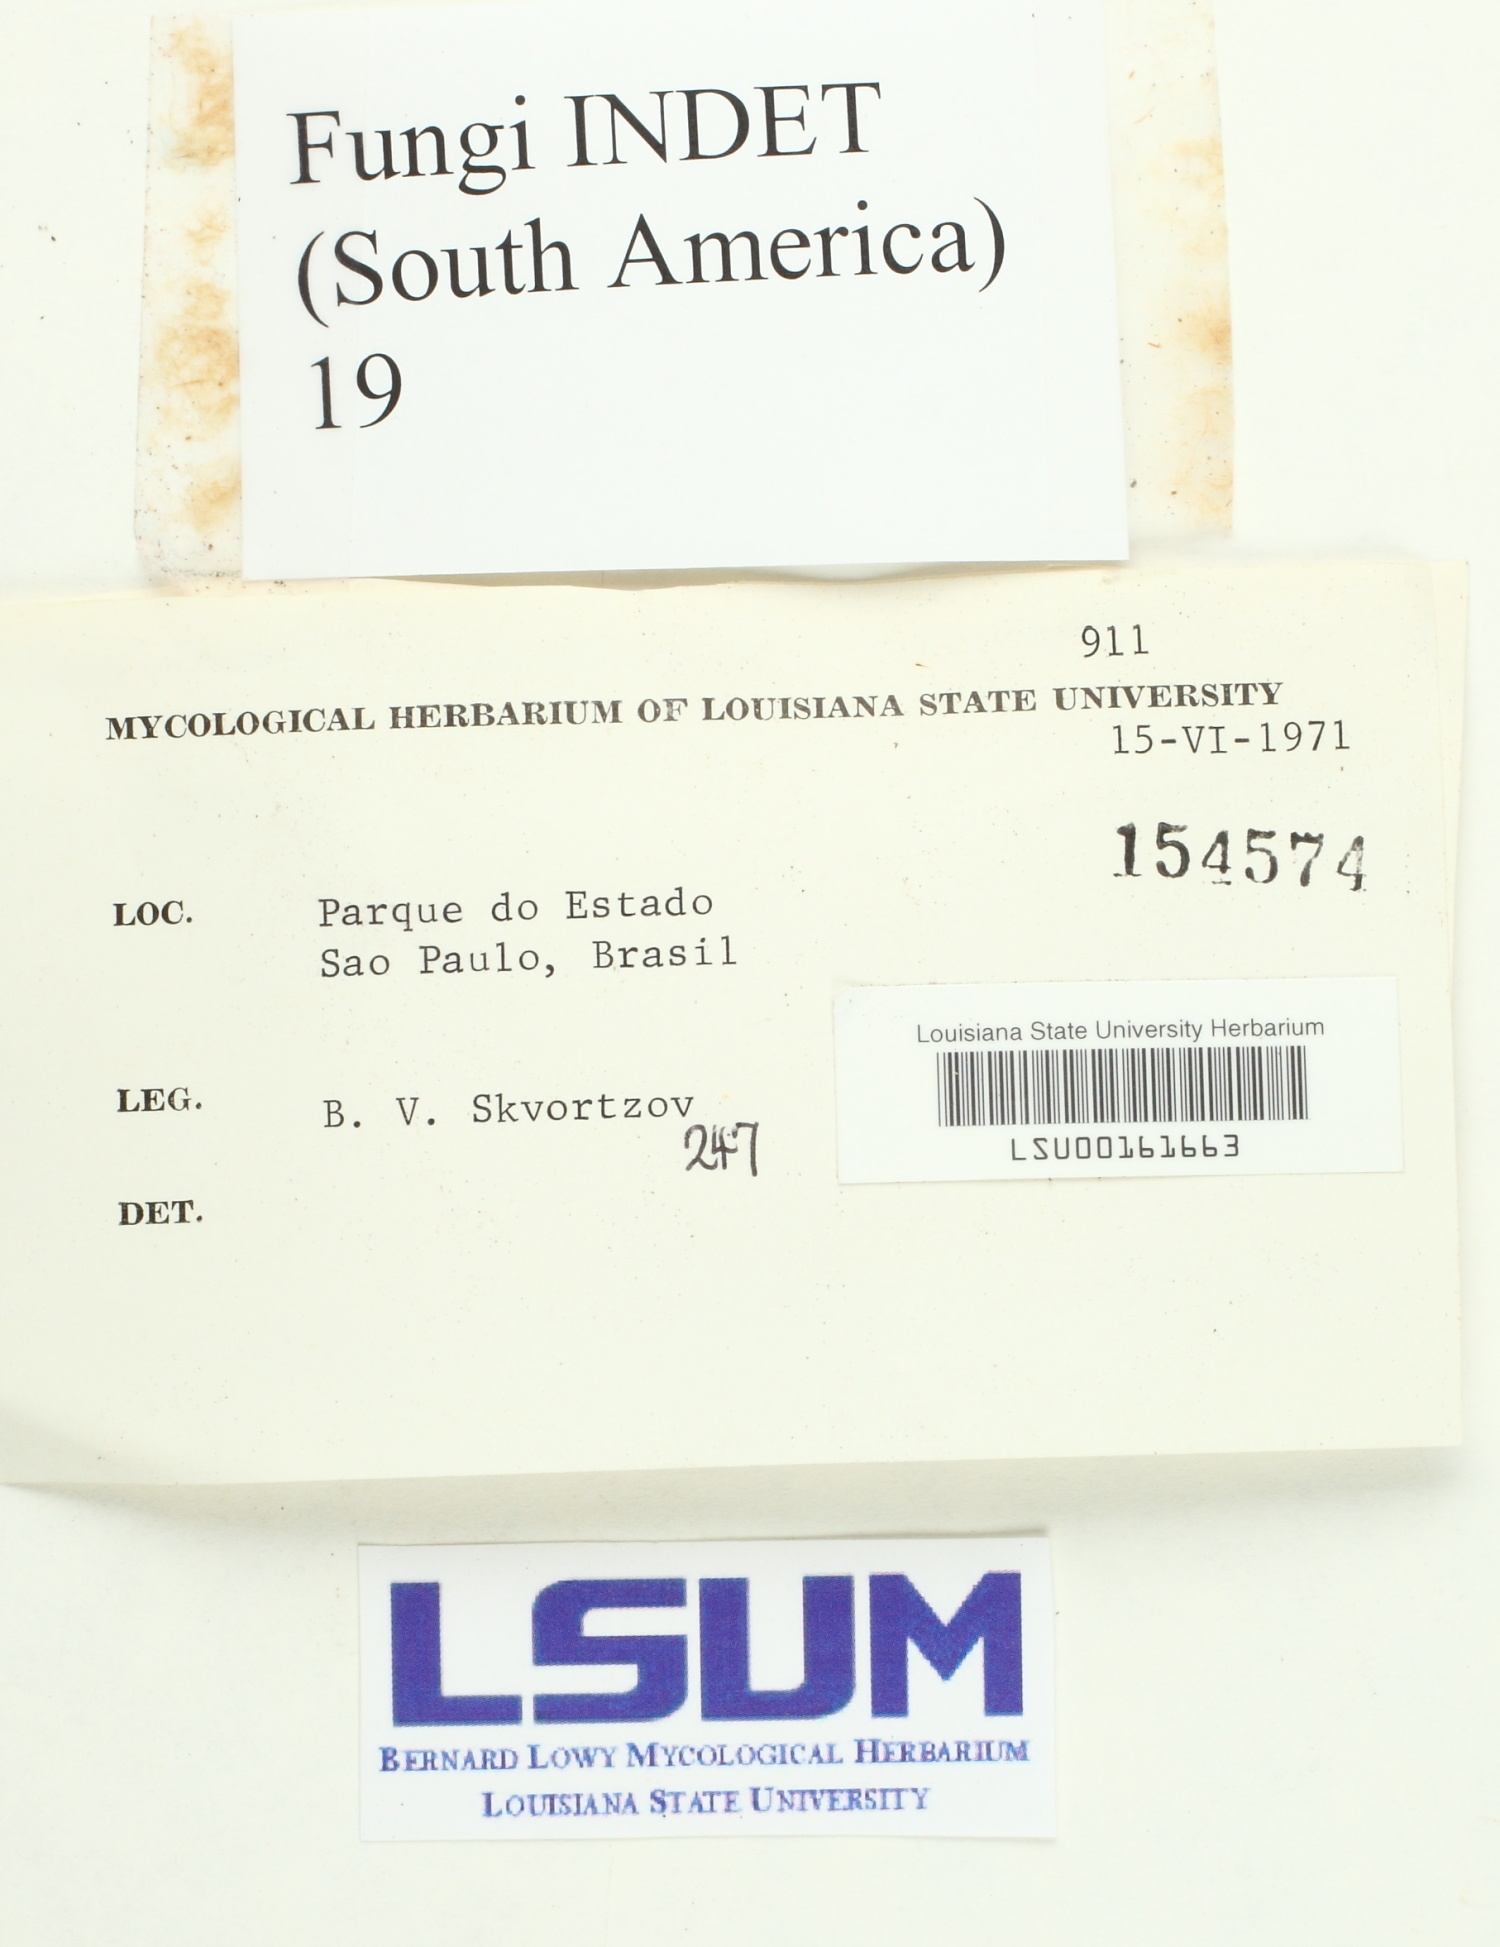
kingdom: Fungi
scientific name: Fungi
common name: Fungi
